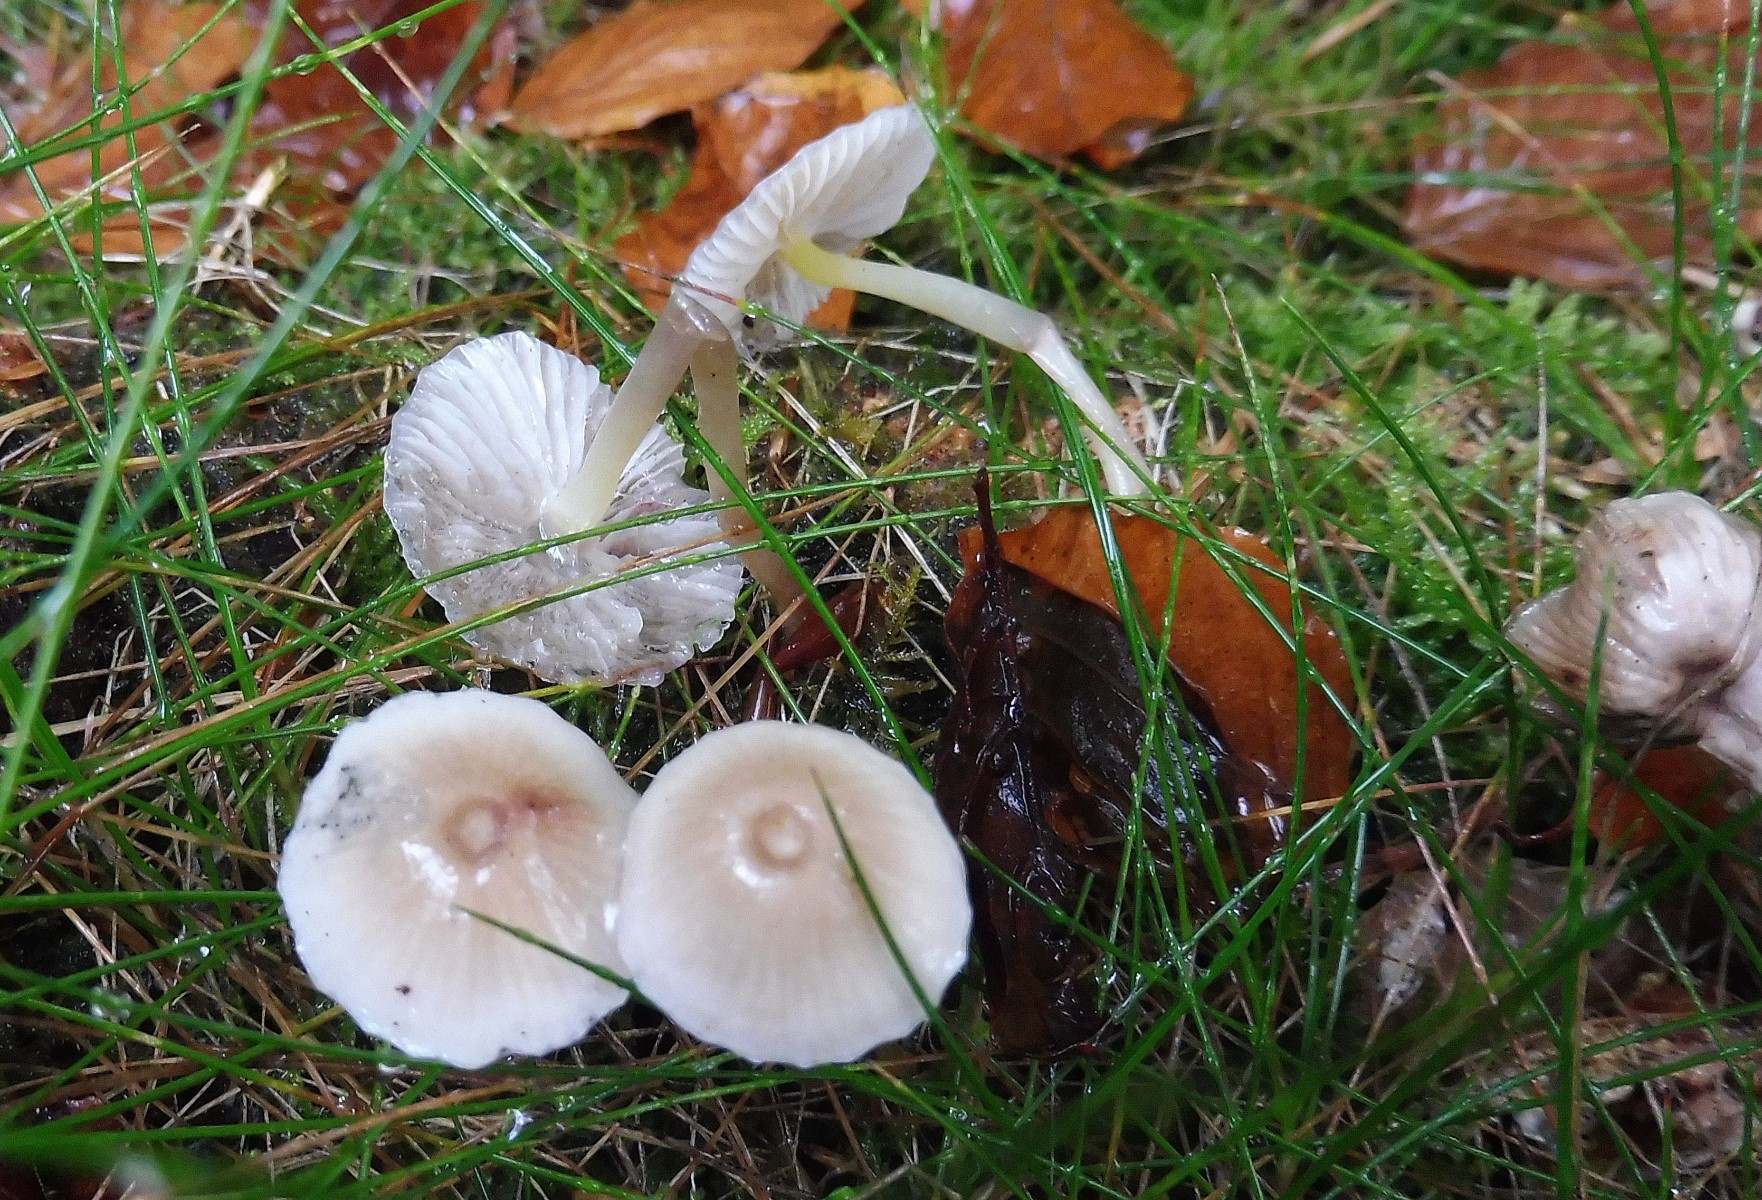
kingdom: Fungi
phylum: Basidiomycota
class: Agaricomycetes
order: Agaricales
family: Mycenaceae
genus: Mycena
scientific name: Mycena epipterygia
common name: gulstokket huesvamp
